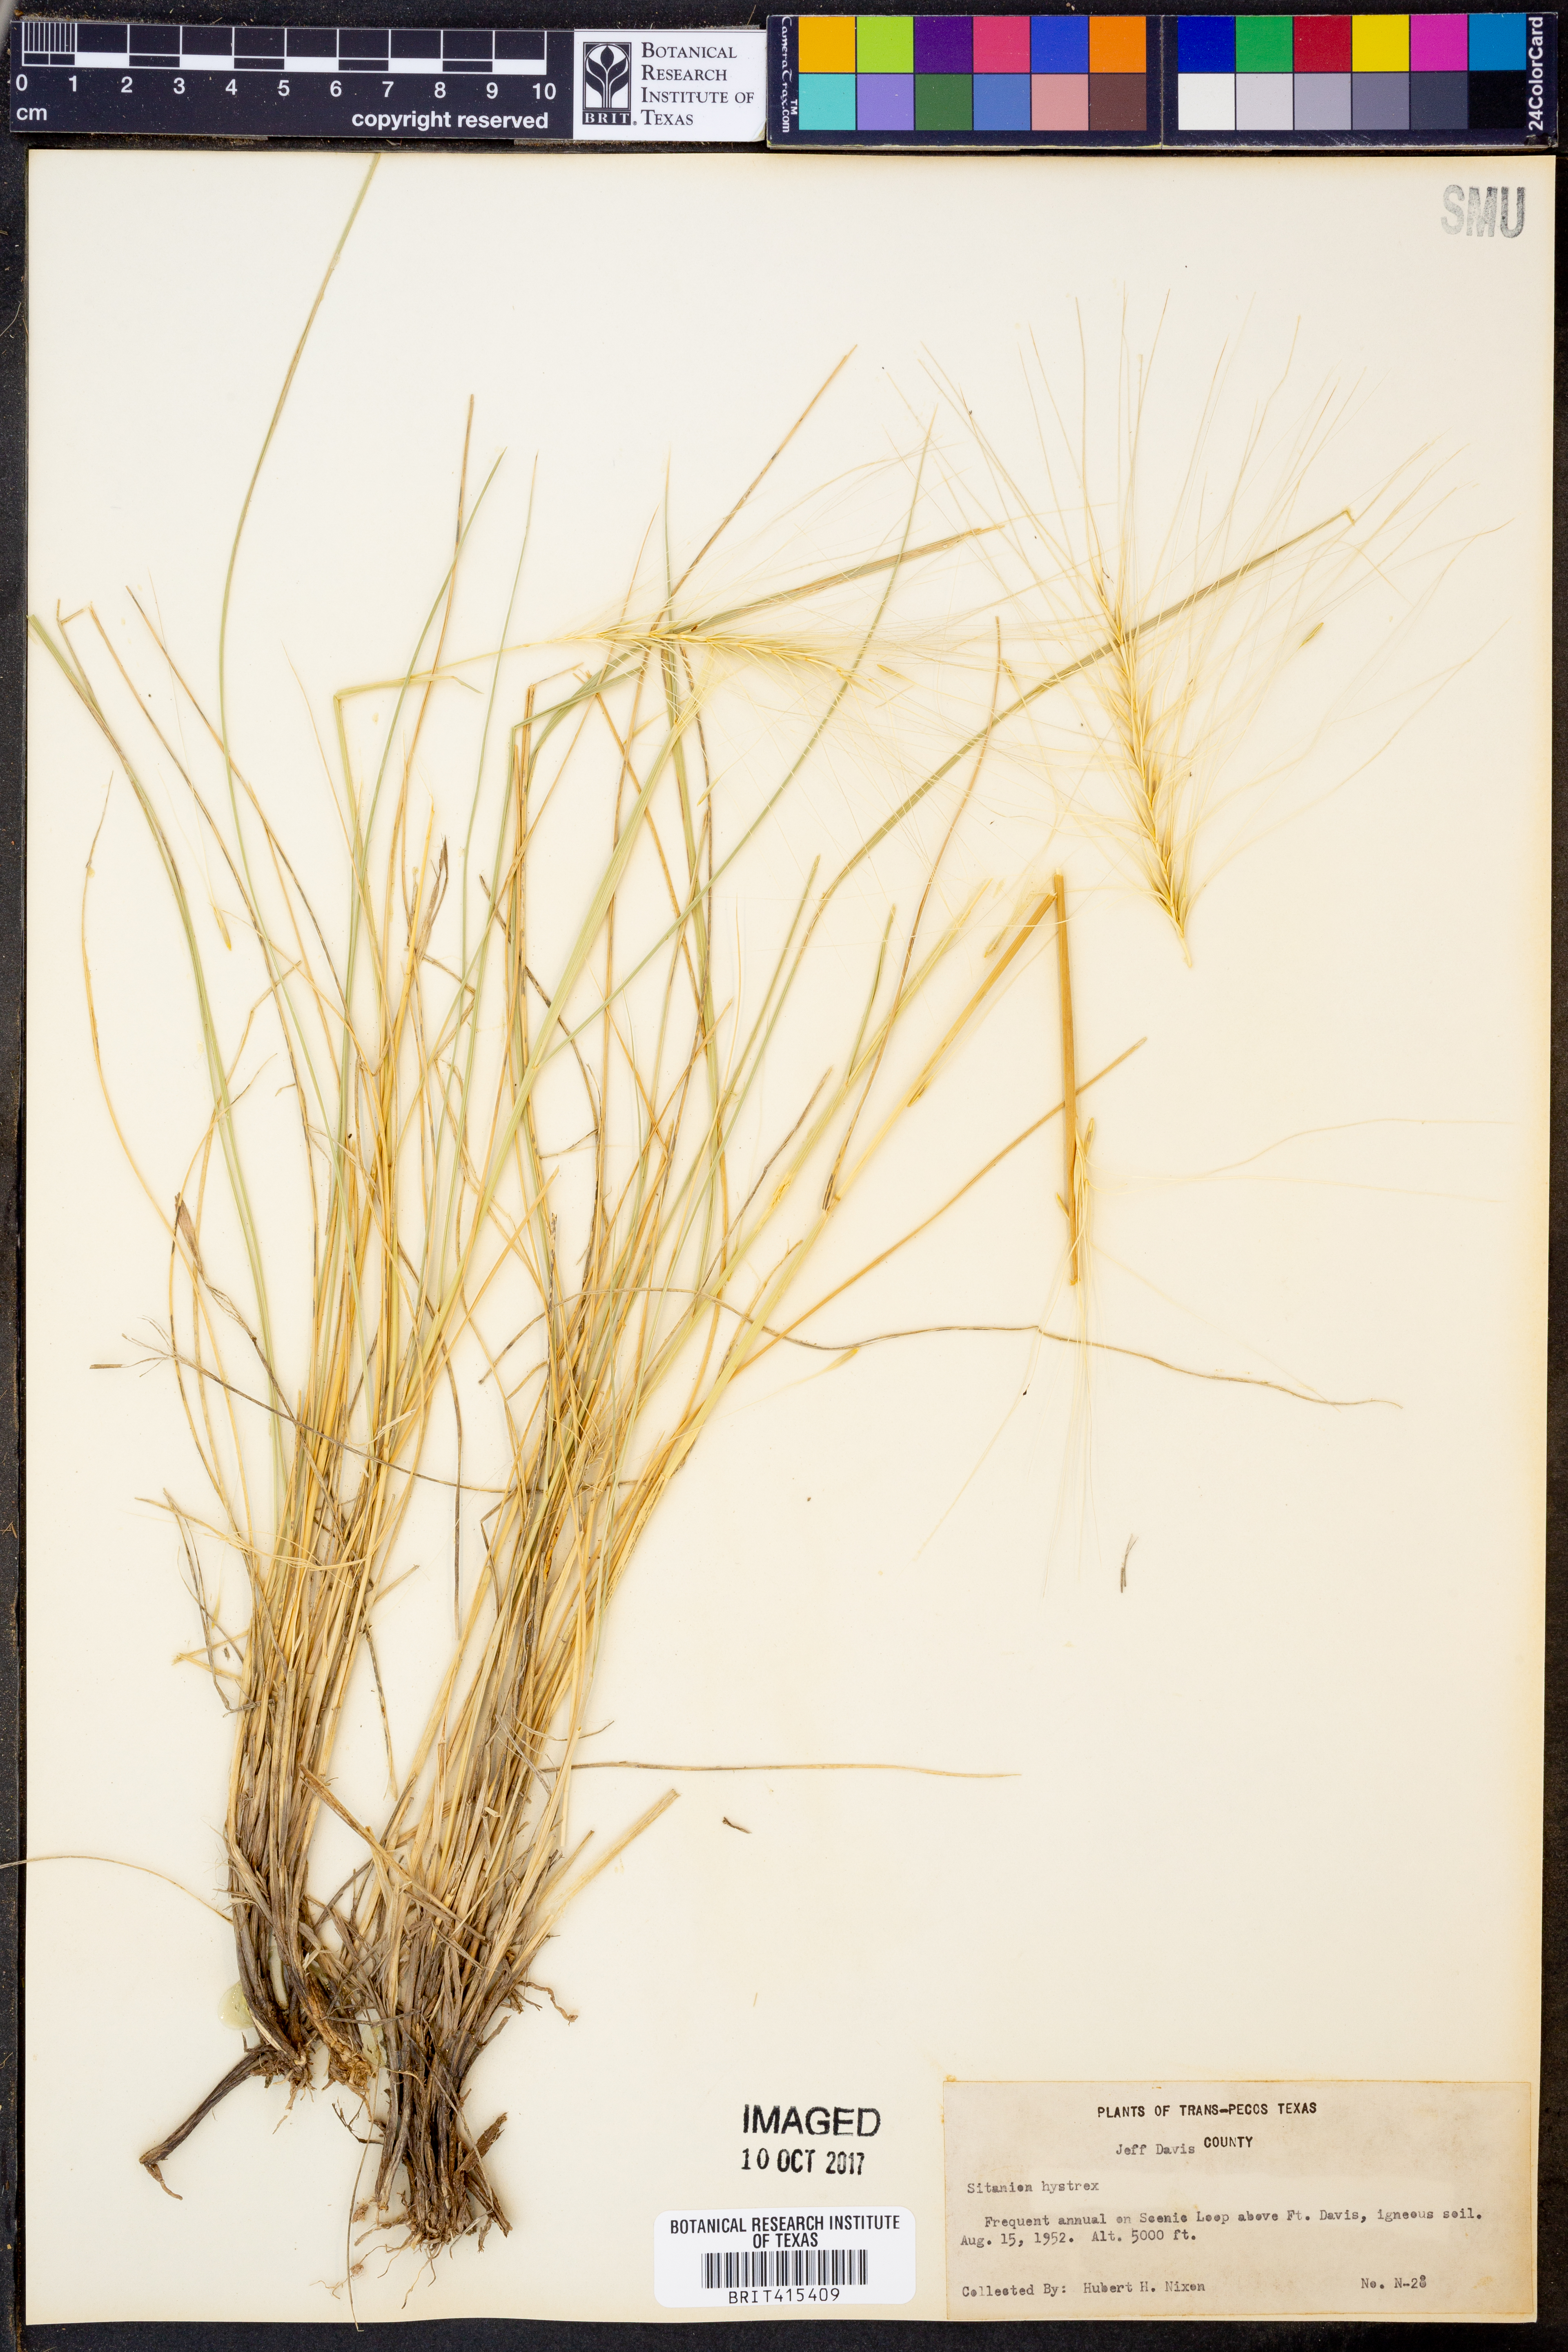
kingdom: Plantae
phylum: Tracheophyta
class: Liliopsida
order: Poales
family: Poaceae
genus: Elymus
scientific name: Elymus elymoides
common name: Bottlebrush squirreltail
